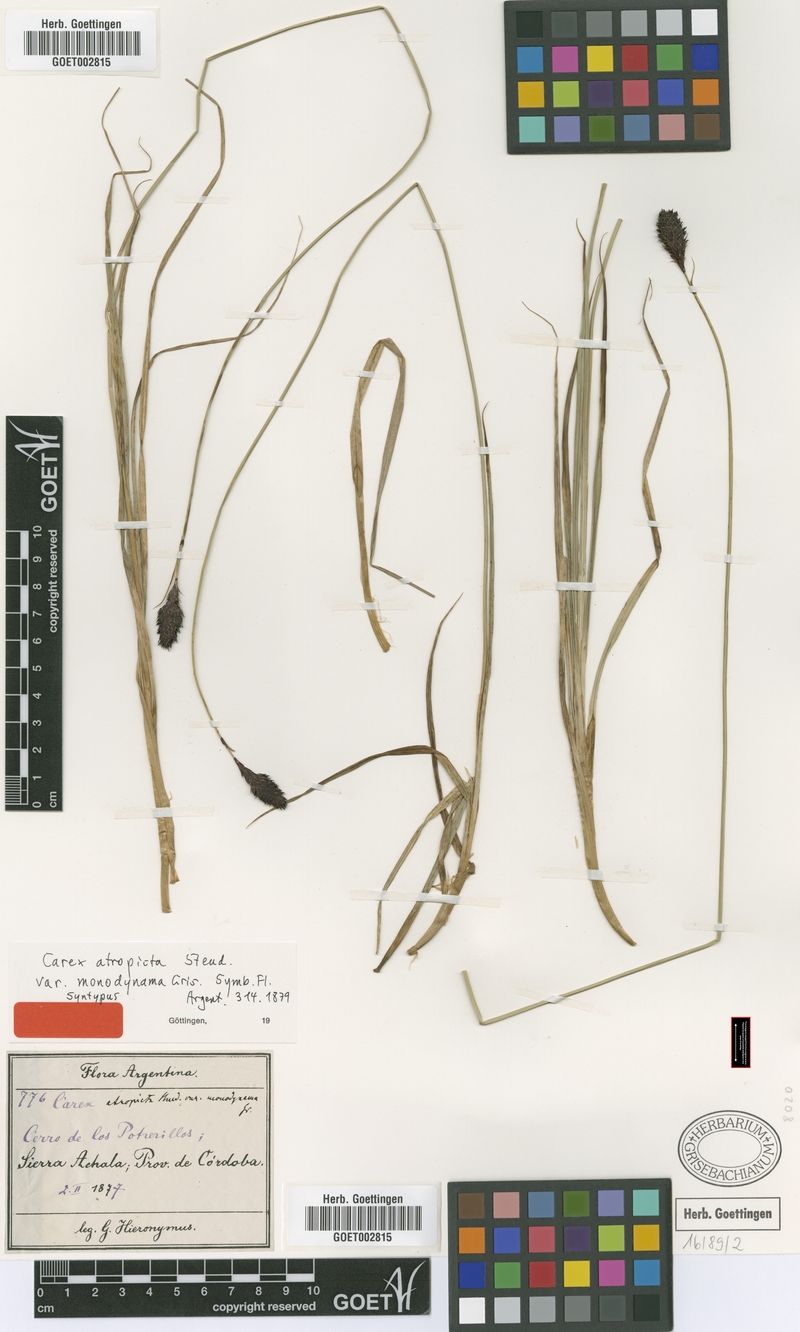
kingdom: Plantae
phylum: Tracheophyta
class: Liliopsida
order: Poales
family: Cyperaceae
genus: Carex
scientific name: Carex monodynama
